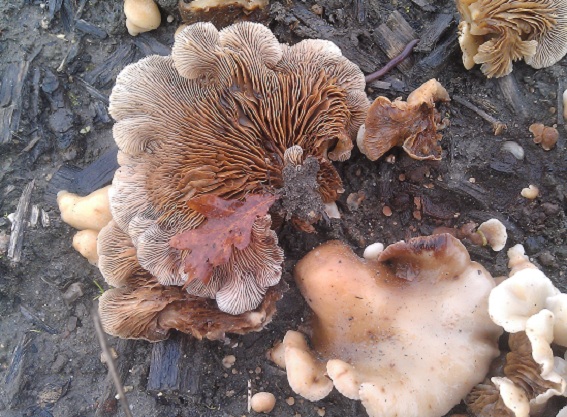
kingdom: Fungi
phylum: Basidiomycota
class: Agaricomycetes
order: Agaricales
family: Crepidotaceae
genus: Crepidotus
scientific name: Crepidotus mollis
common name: blød muslingesvamp
